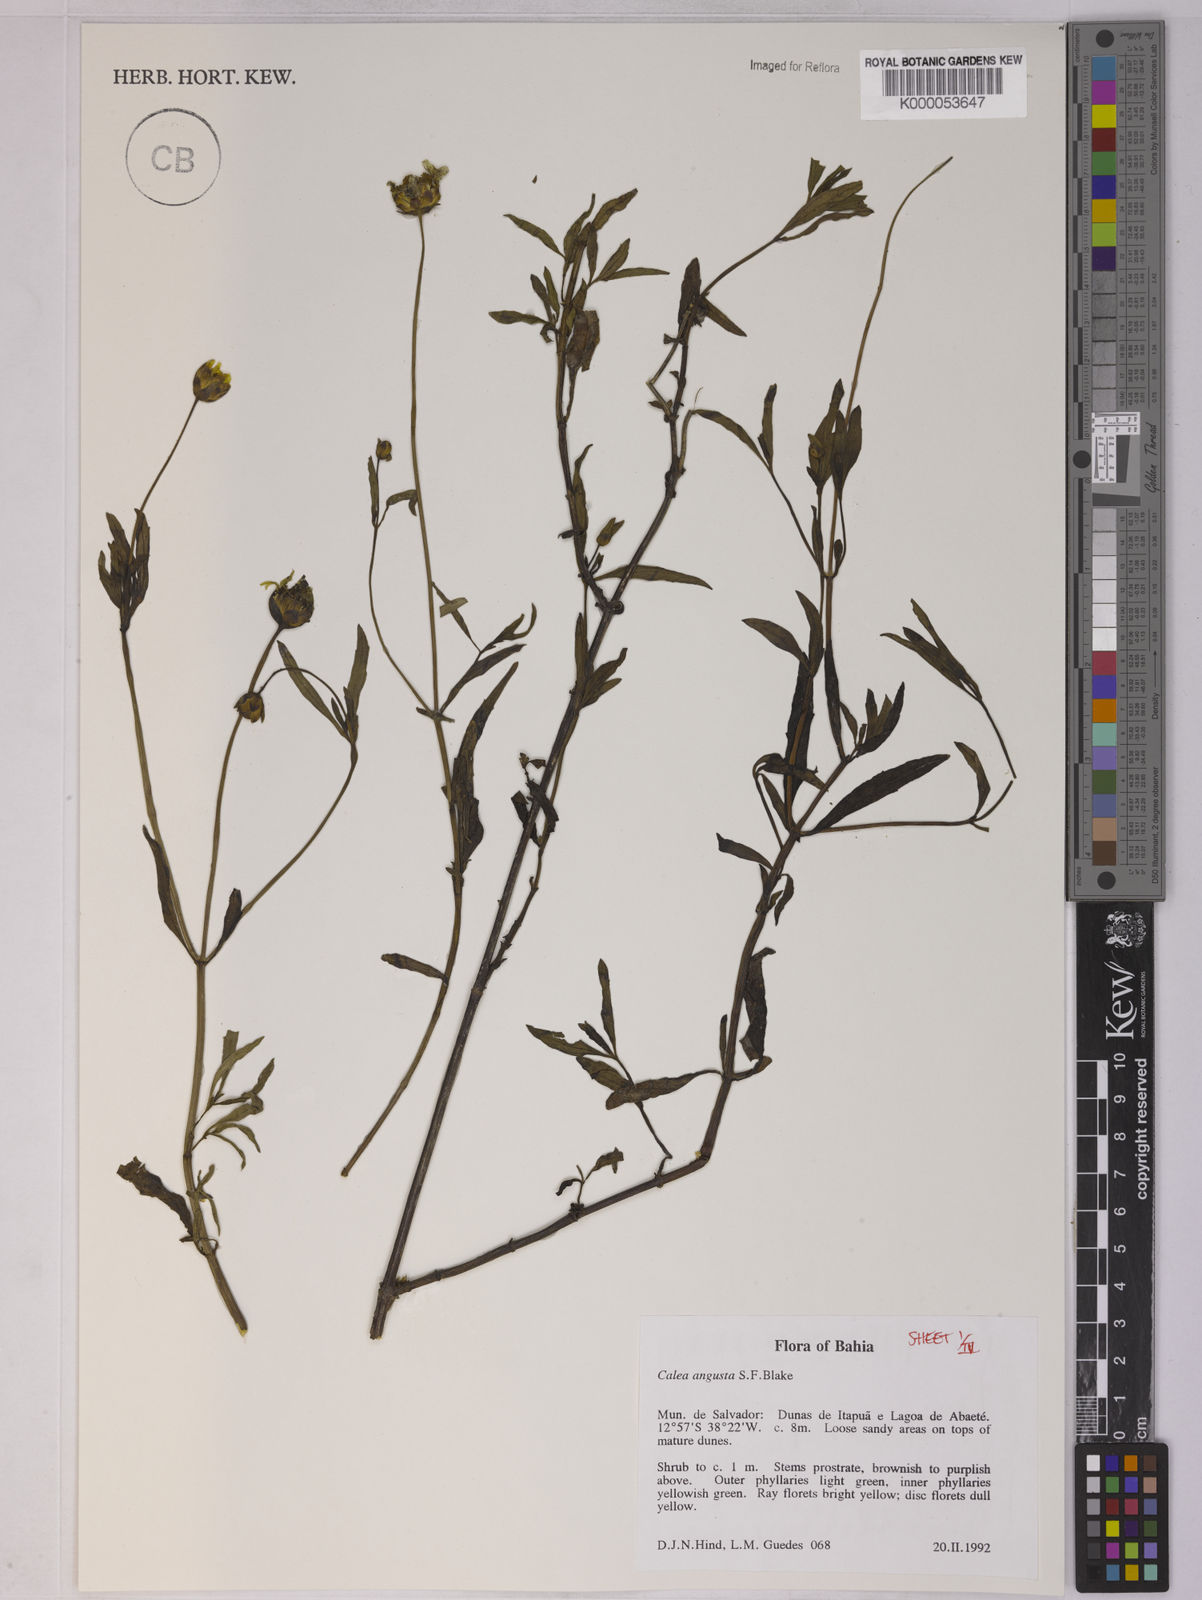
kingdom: Plantae
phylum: Tracheophyta
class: Magnoliopsida
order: Asterales
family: Asteraceae
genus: Calea
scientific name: Calea angusta
